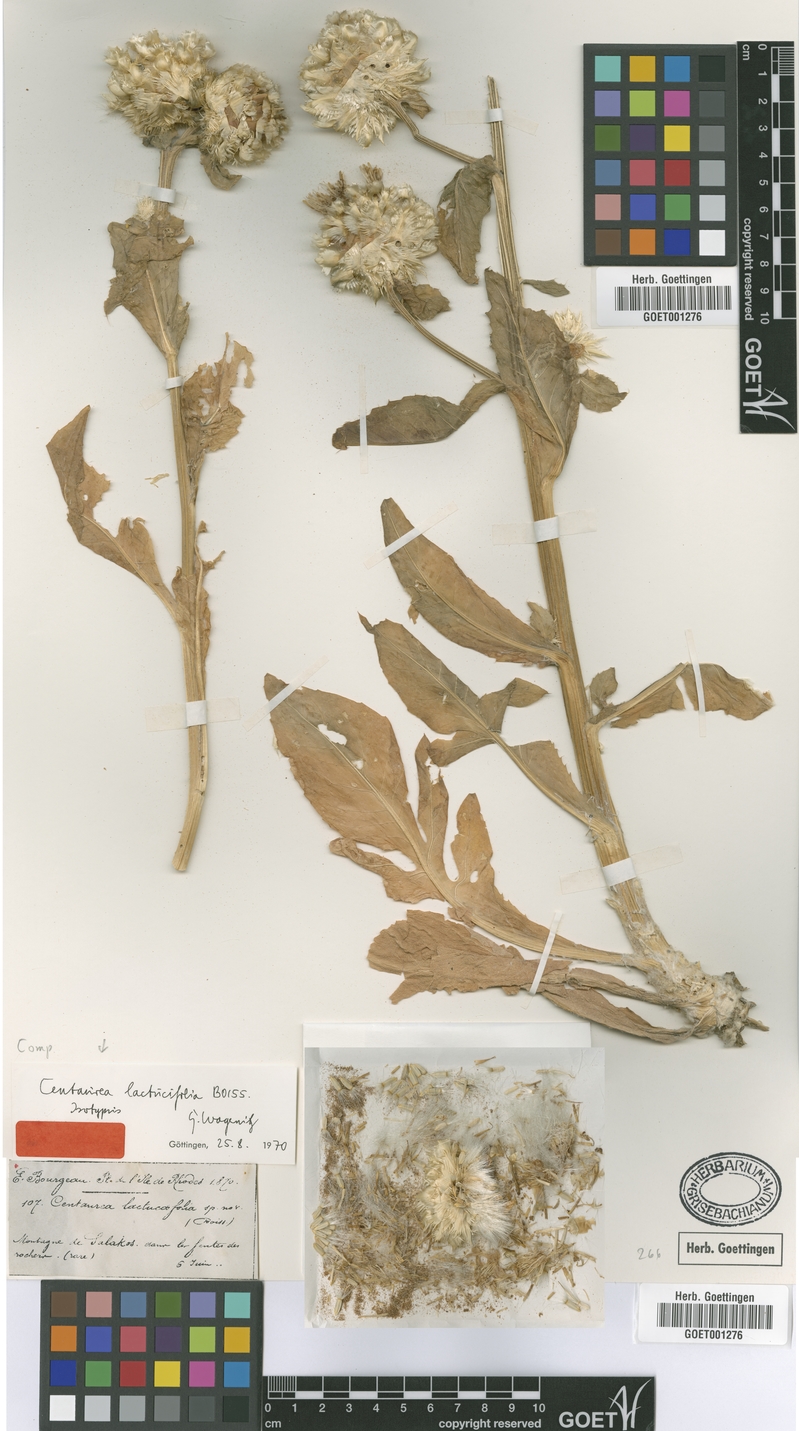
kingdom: Plantae
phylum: Tracheophyta
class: Magnoliopsida
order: Asterales
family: Asteraceae
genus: Centaurea
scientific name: Centaurea lactucifolia
